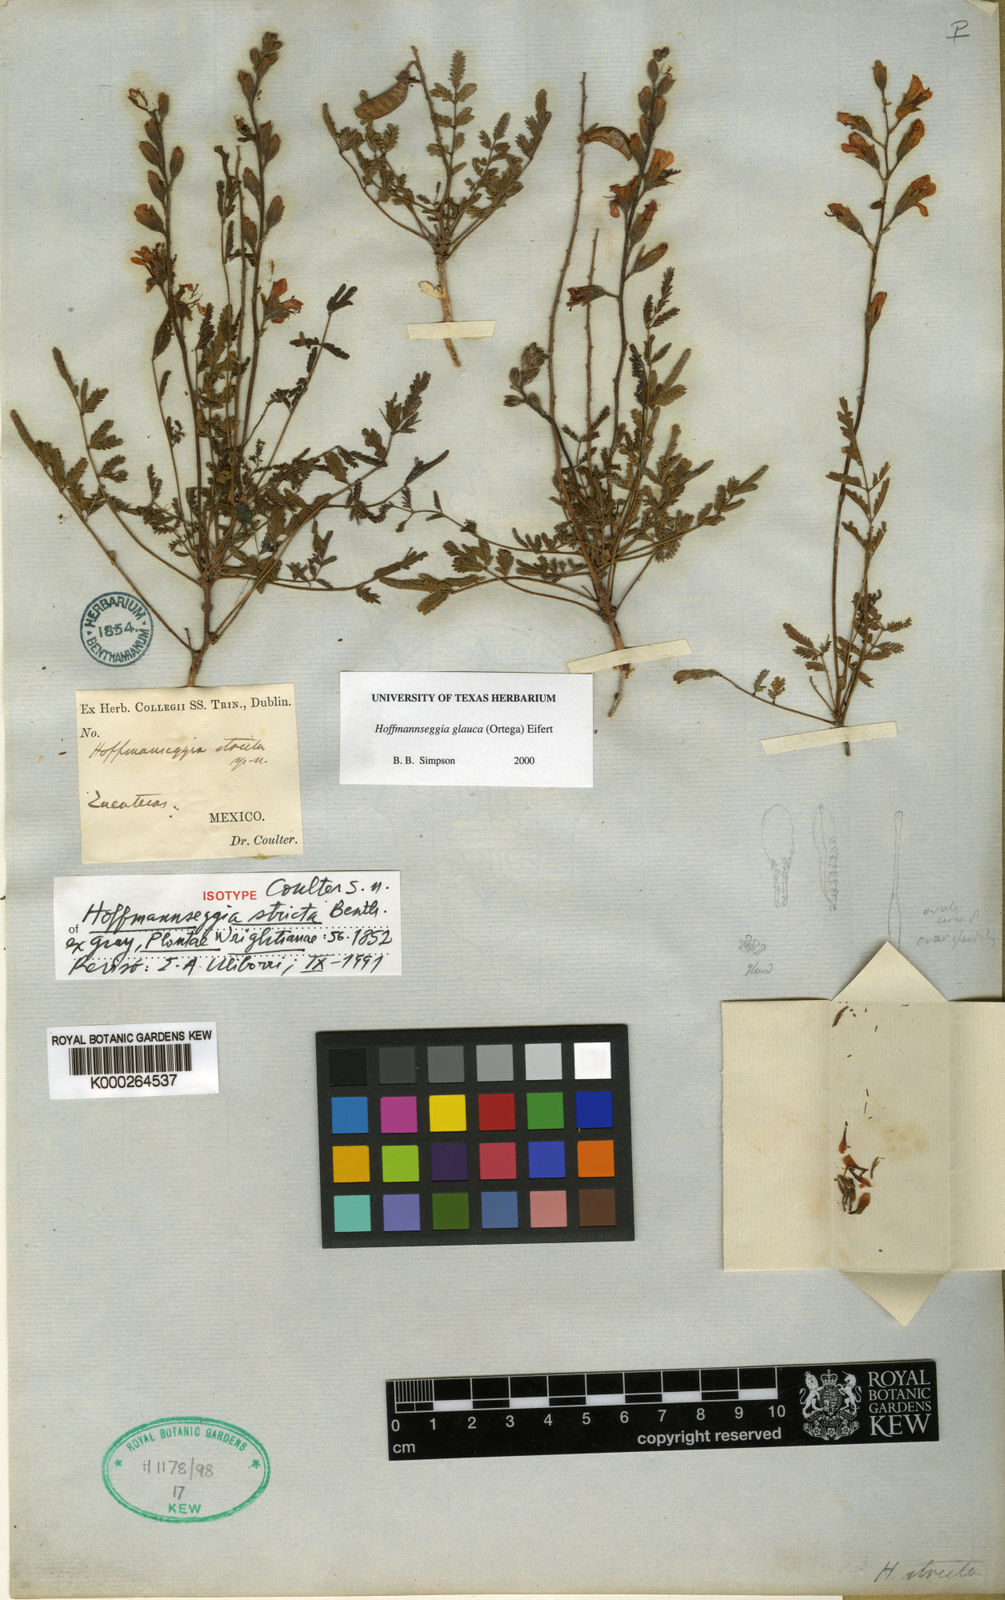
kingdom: Plantae
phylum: Tracheophyta
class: Magnoliopsida
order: Fabales
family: Fabaceae
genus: Hoffmannseggia
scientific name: Hoffmannseggia glauca
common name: Pignut
